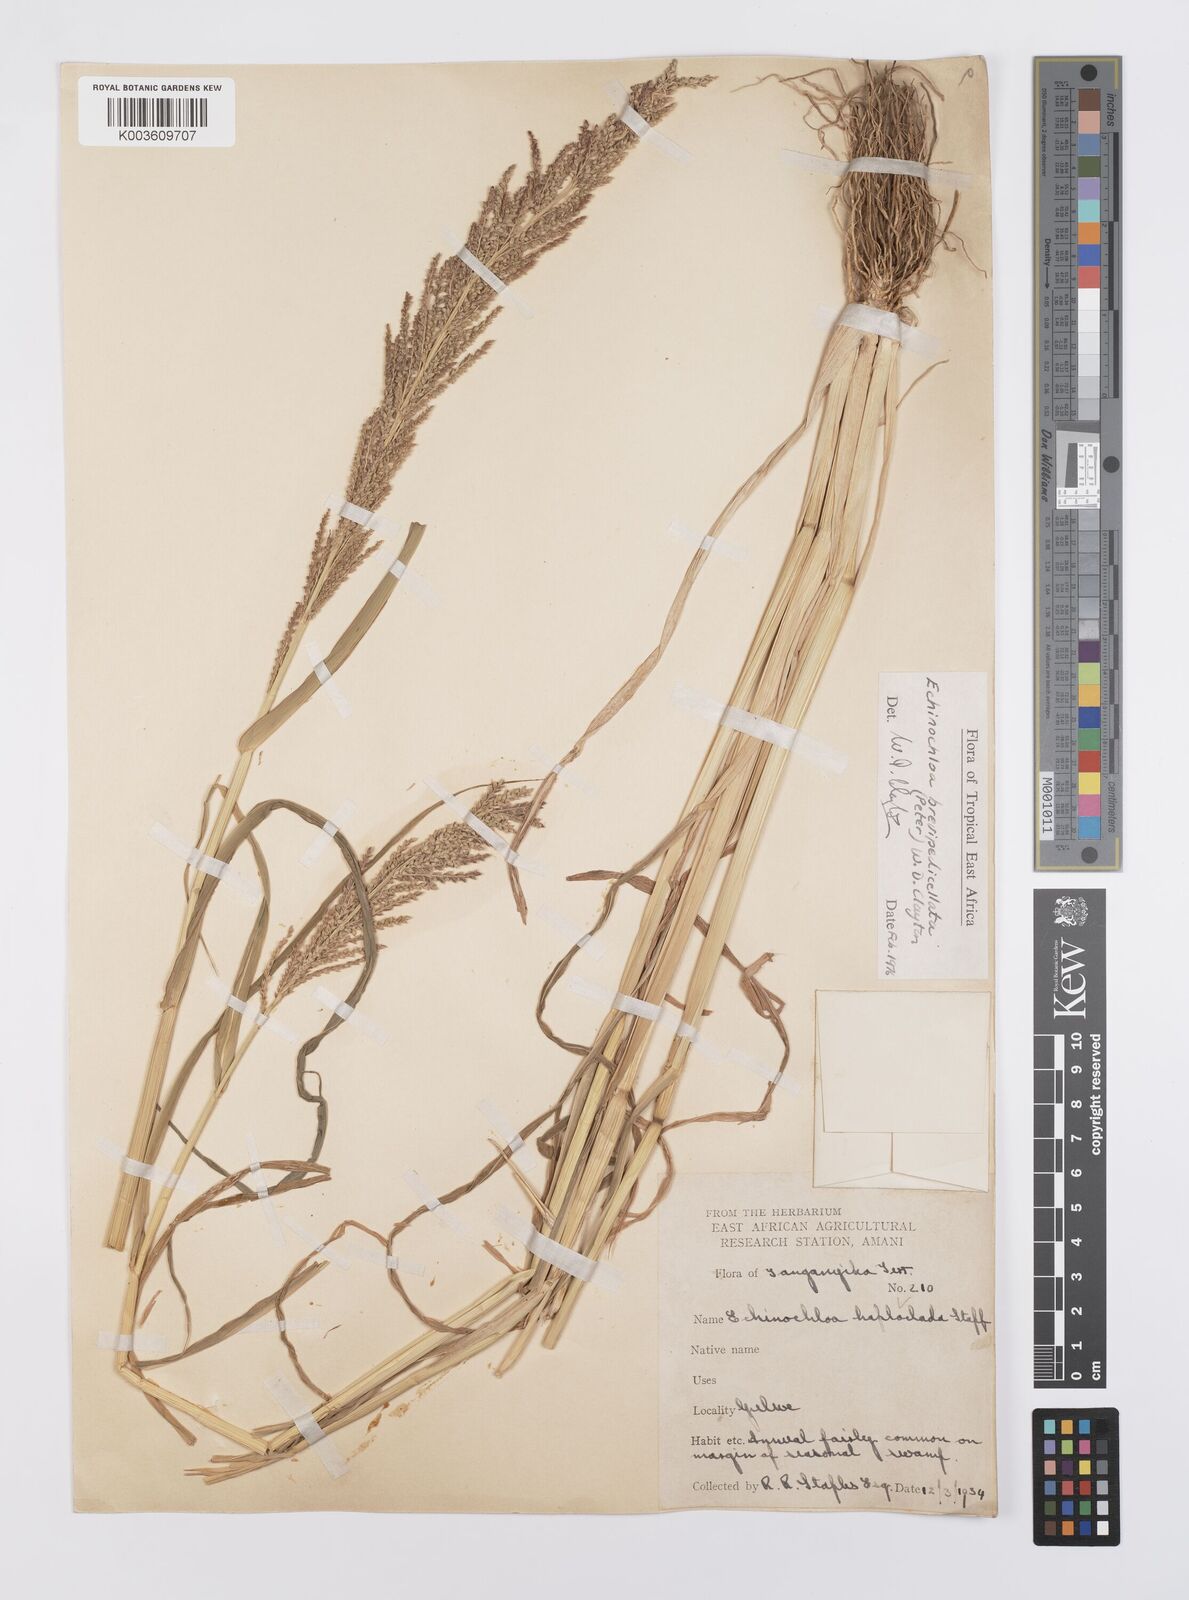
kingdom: Plantae
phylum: Tracheophyta
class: Liliopsida
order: Poales
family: Poaceae
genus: Echinochloa
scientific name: Echinochloa brevipedicellata
